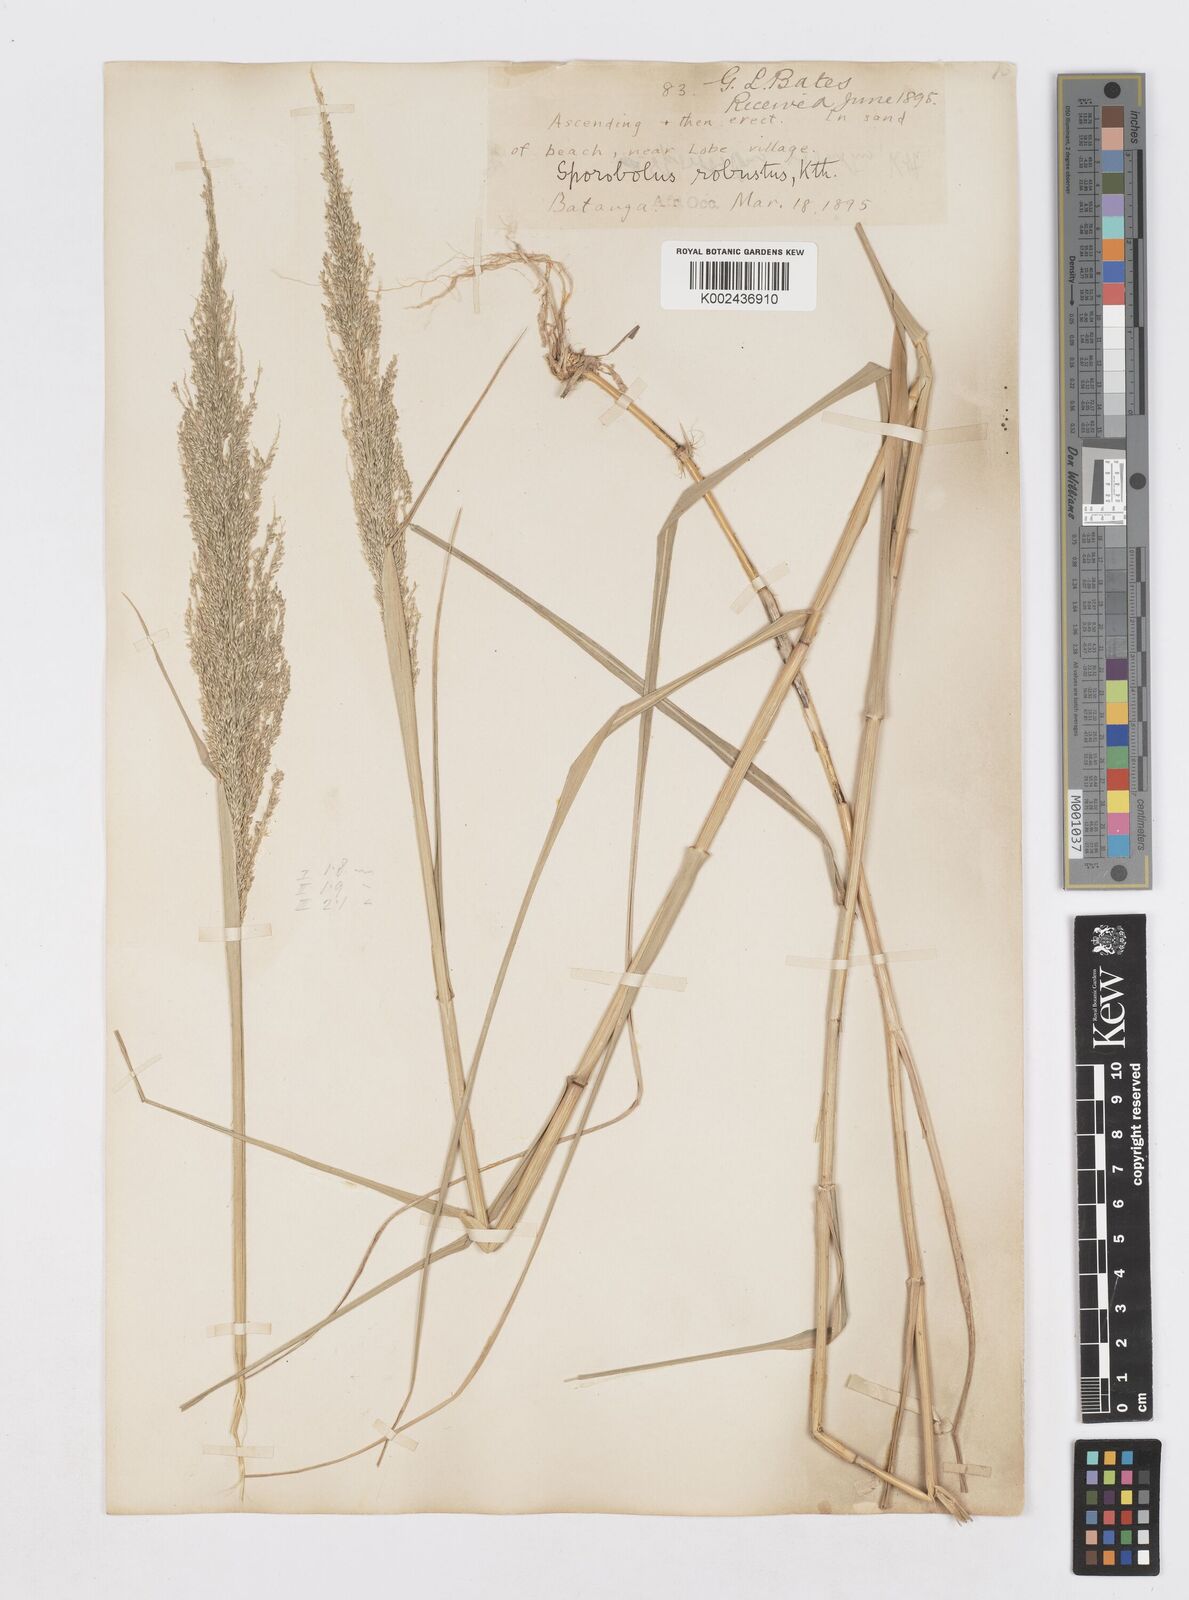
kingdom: Plantae
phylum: Tracheophyta
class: Liliopsida
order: Poales
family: Poaceae
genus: Sporobolus
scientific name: Sporobolus robustus
